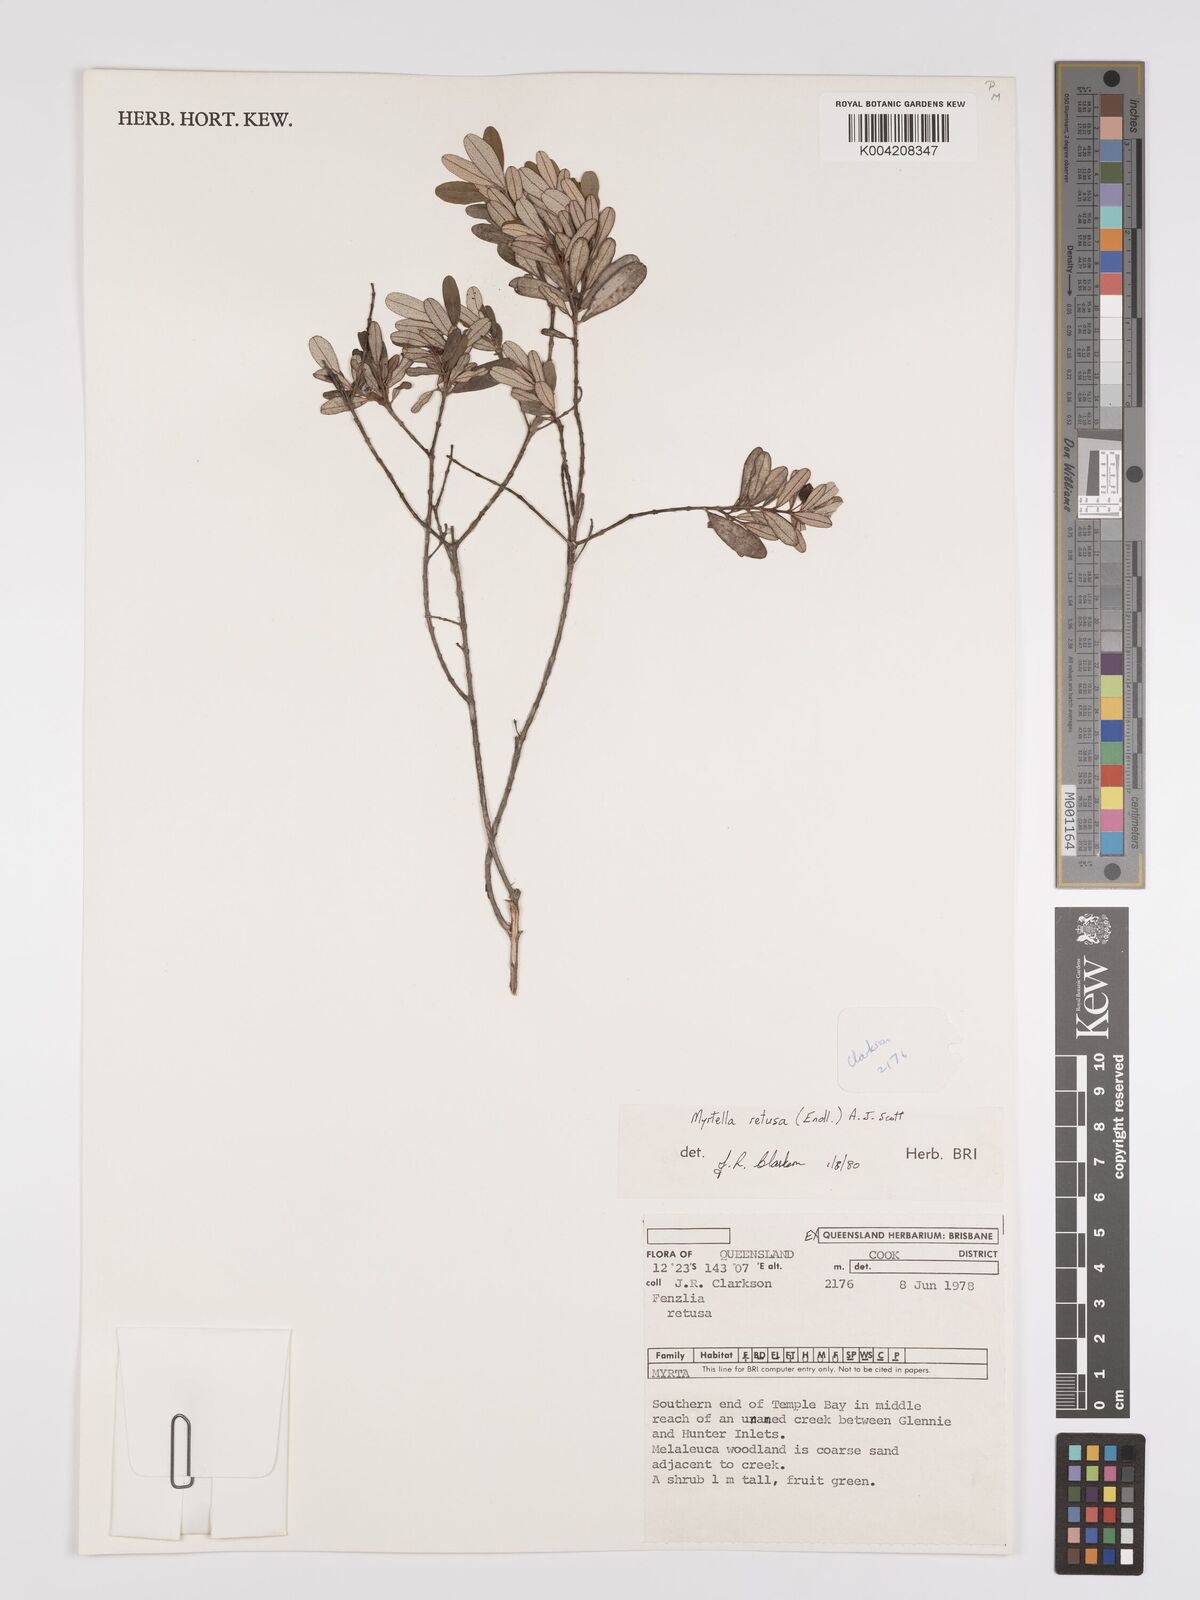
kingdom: Plantae
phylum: Tracheophyta
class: Magnoliopsida
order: Myrtales
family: Myrtaceae
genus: Lithomyrtus
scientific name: Lithomyrtus retusa
